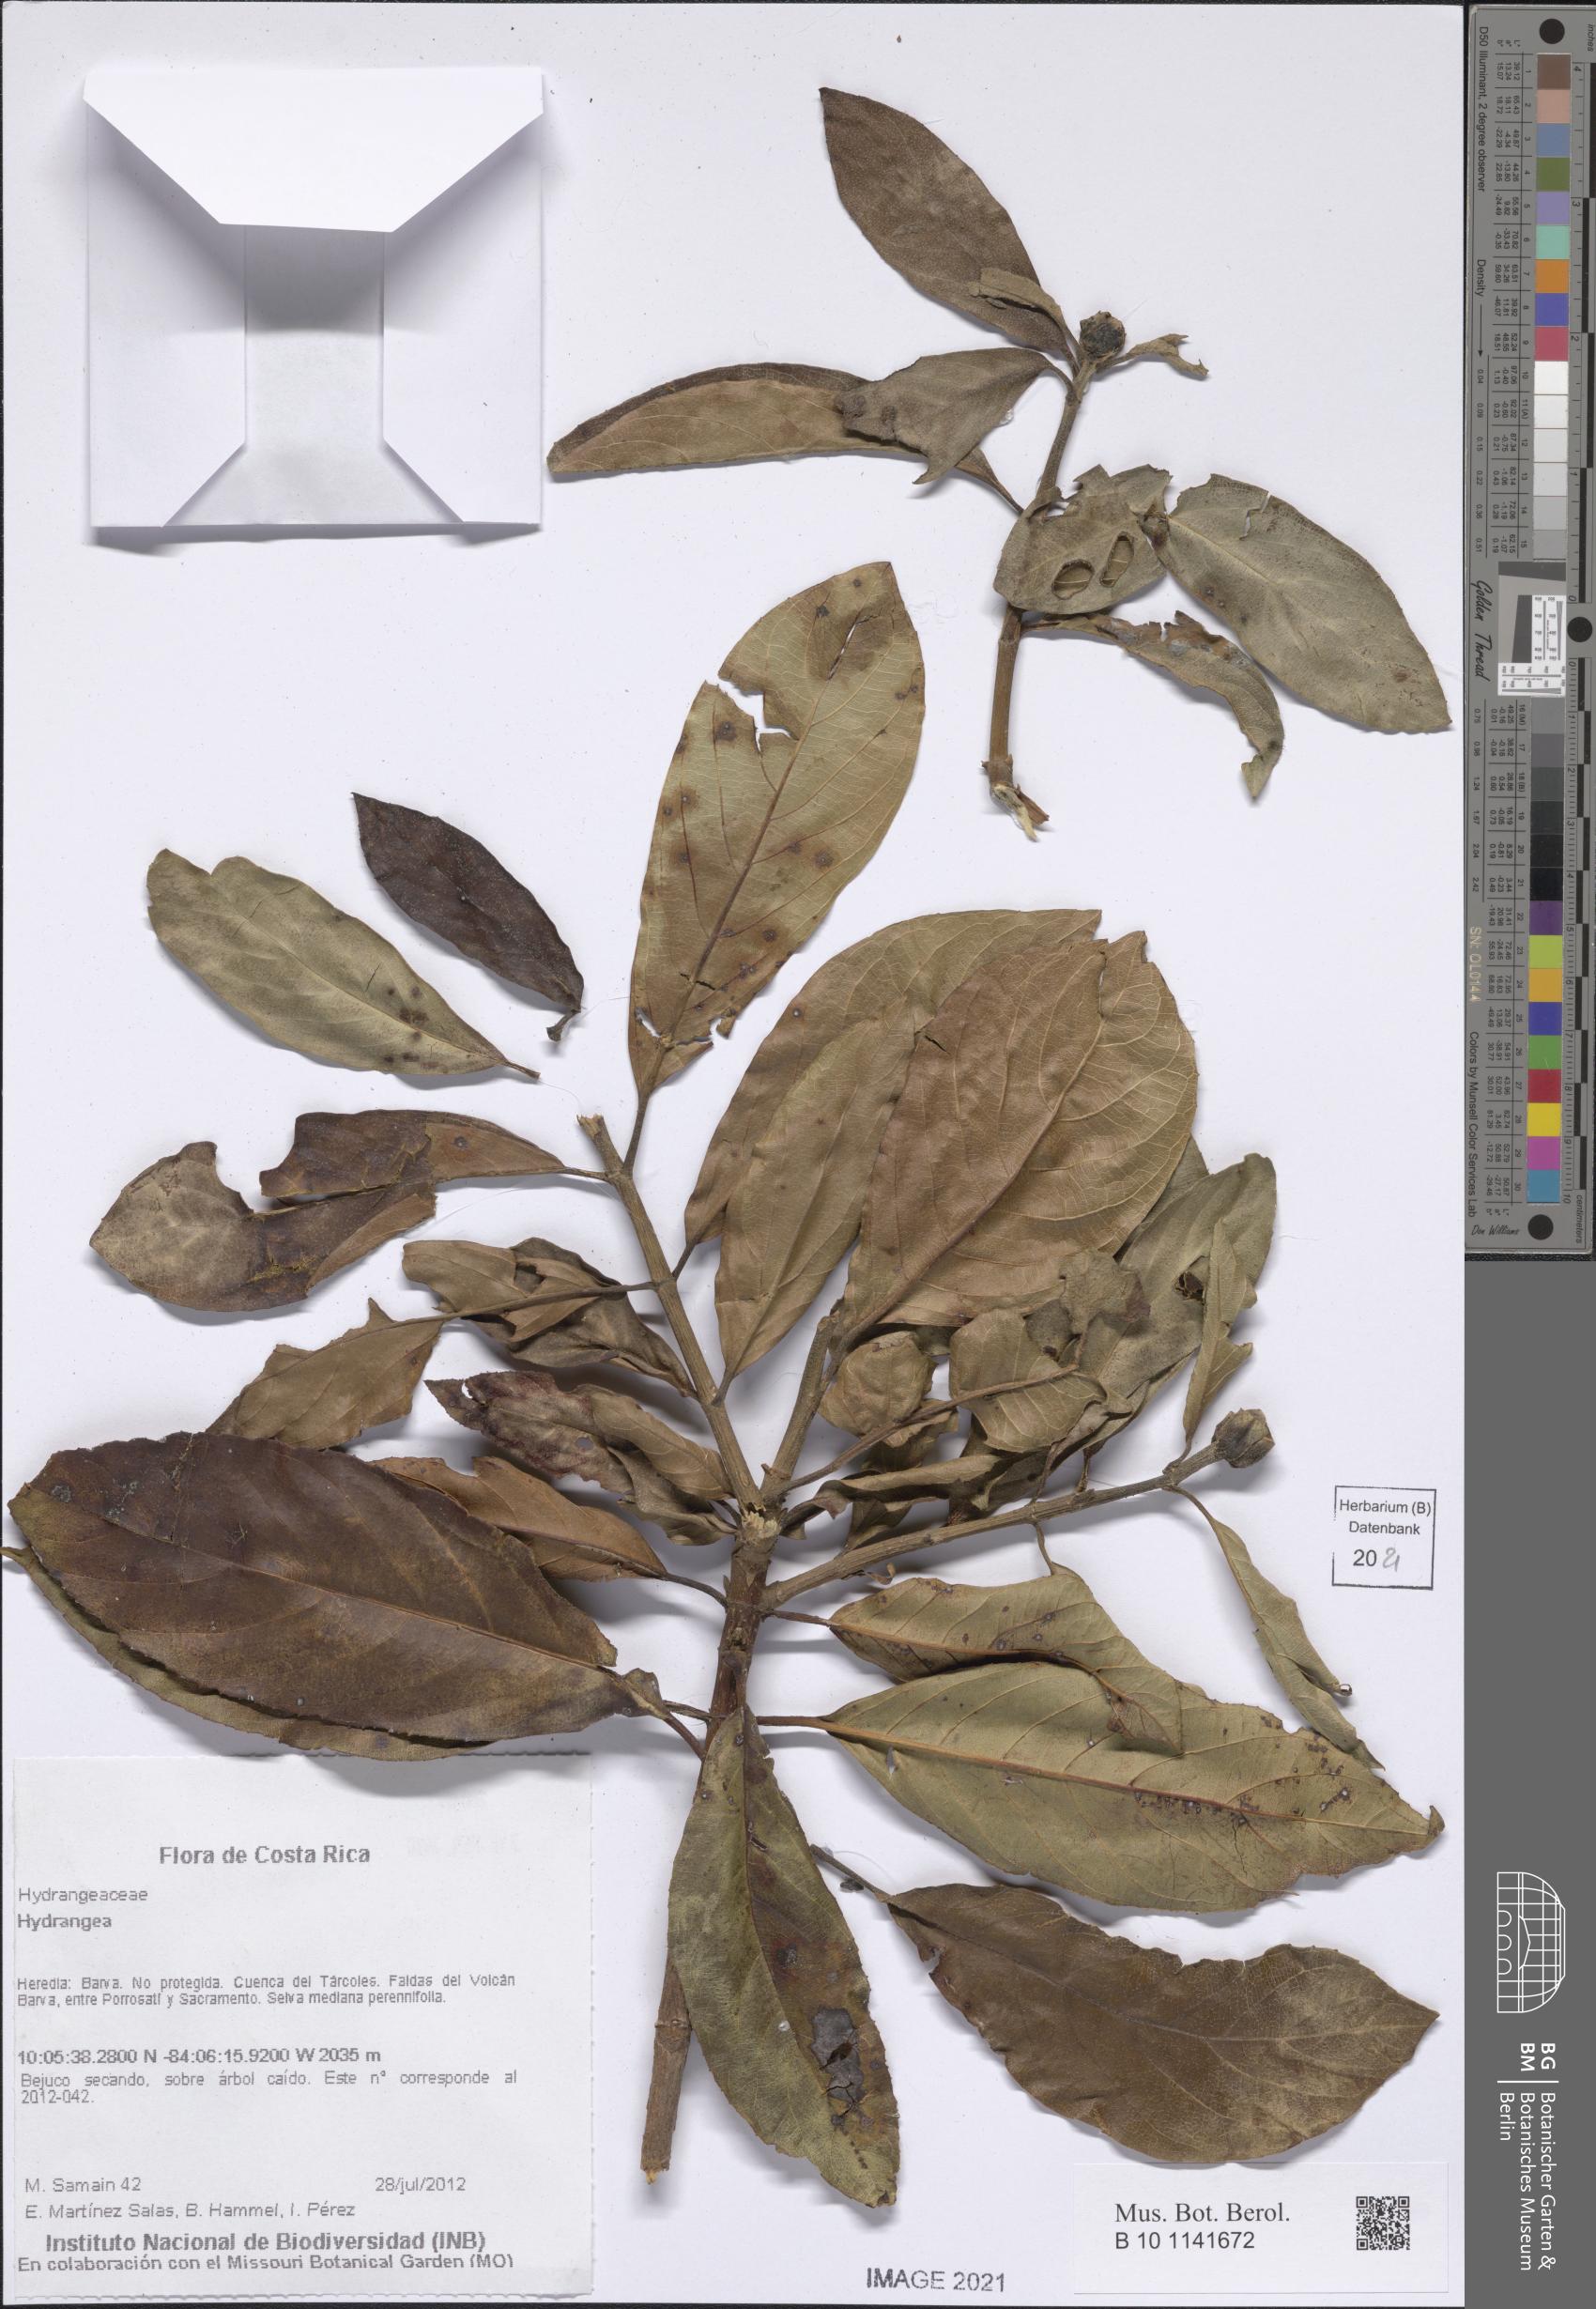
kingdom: Plantae
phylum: Tracheophyta
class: Magnoliopsida
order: Cornales
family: Hydrangeaceae
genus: Hydrangea
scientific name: Hydrangea
